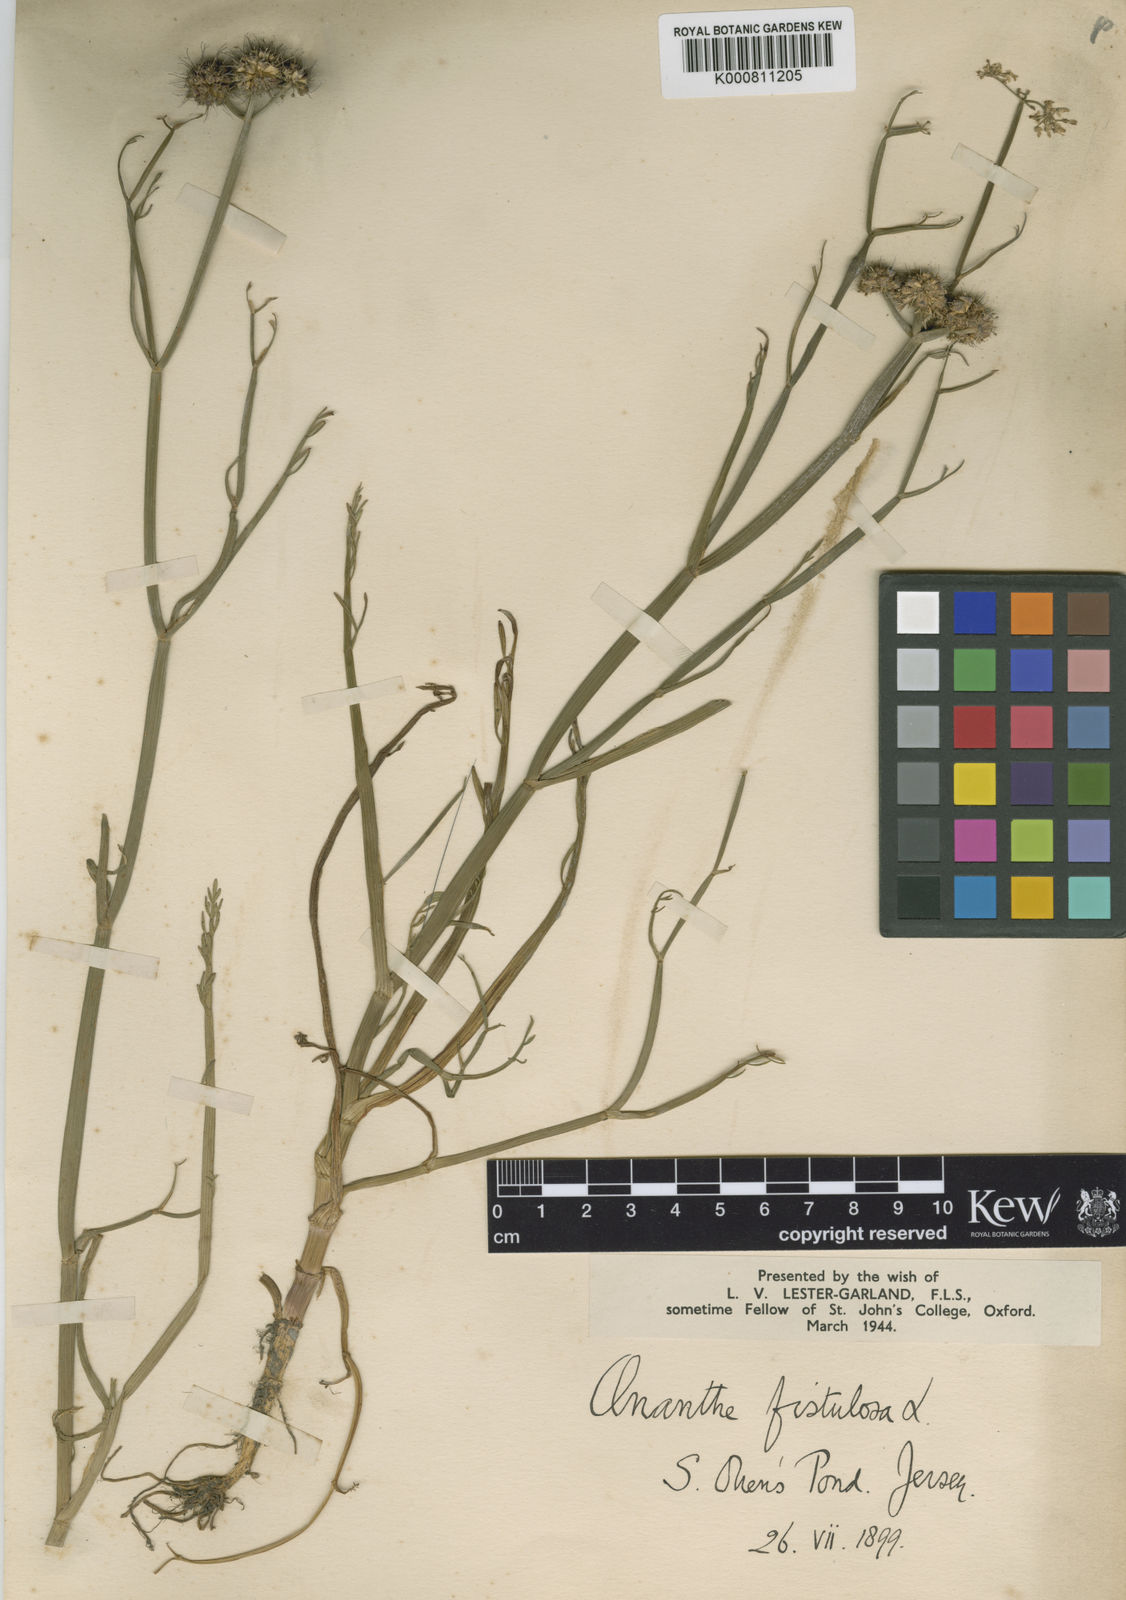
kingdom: Plantae
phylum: Tracheophyta
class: Magnoliopsida
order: Apiales
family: Apiaceae
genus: Oenanthe
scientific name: Oenanthe fistulosa
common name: Tubular water-dropwort
